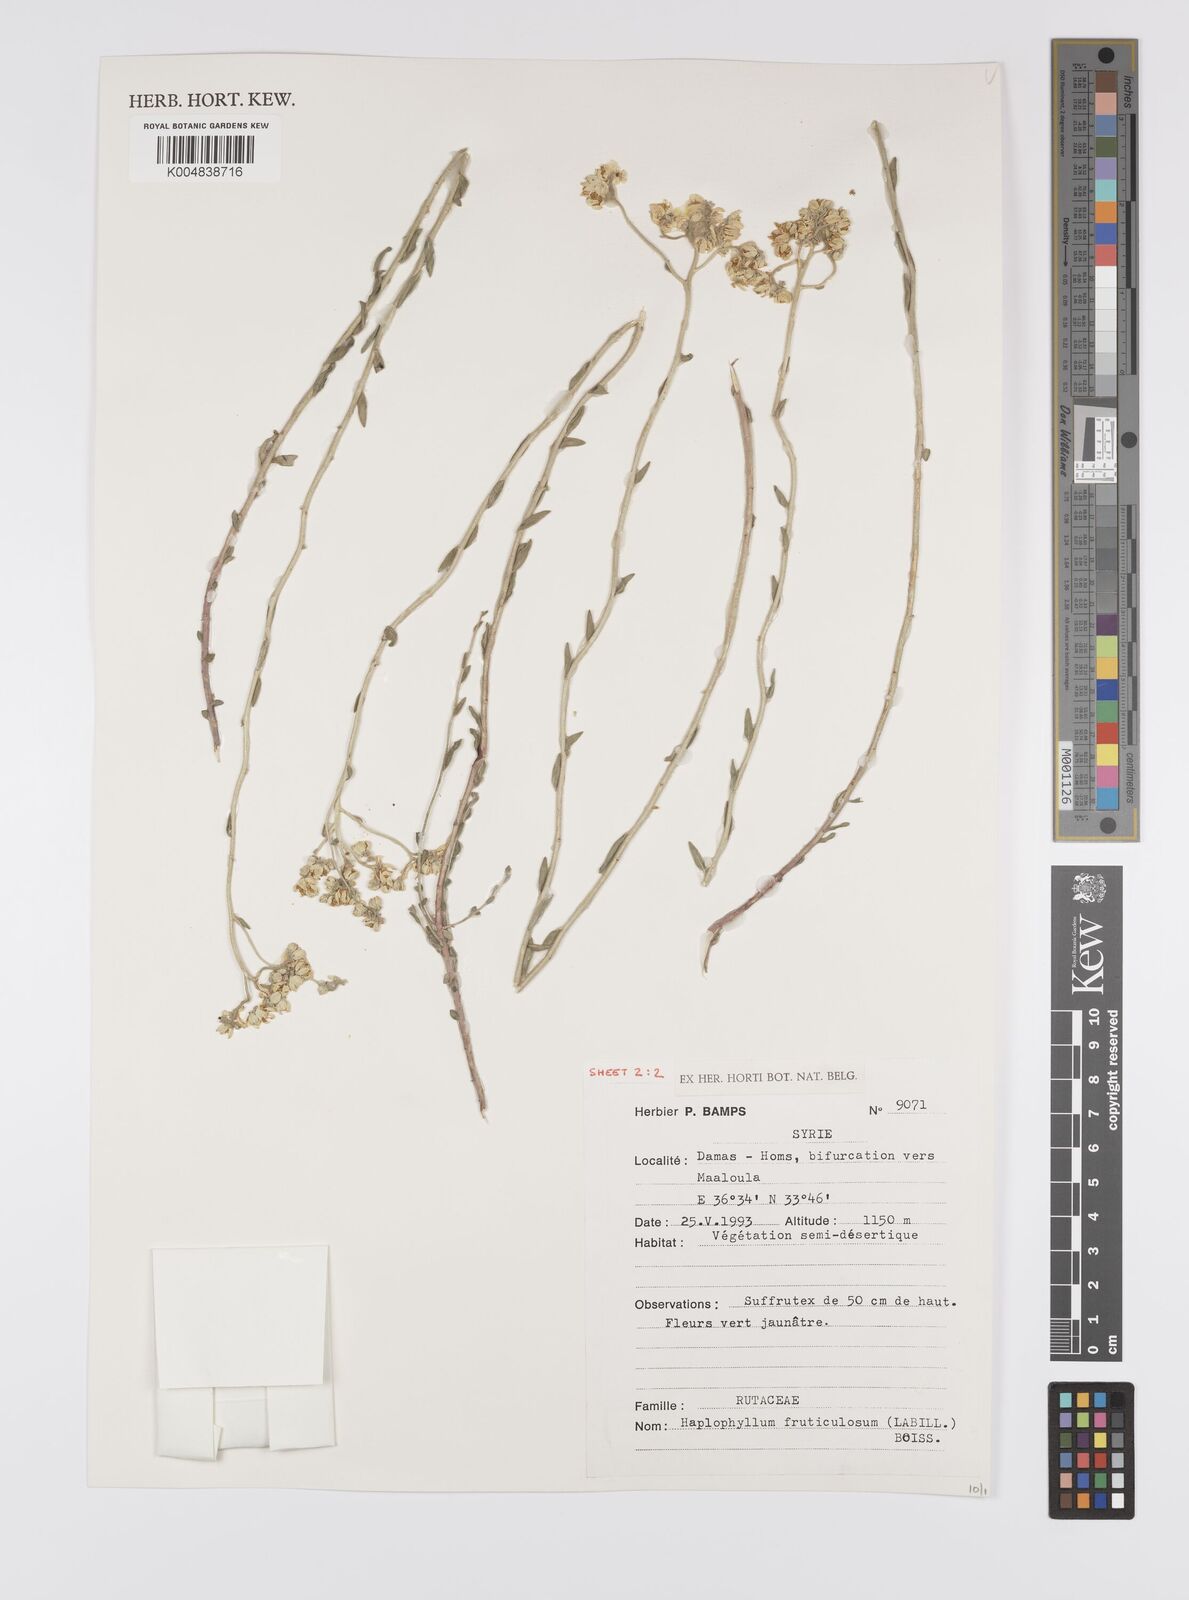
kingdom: Plantae
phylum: Tracheophyta
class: Magnoliopsida
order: Sapindales
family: Rutaceae
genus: Haplophyllum
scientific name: Haplophyllum fruticulosum
